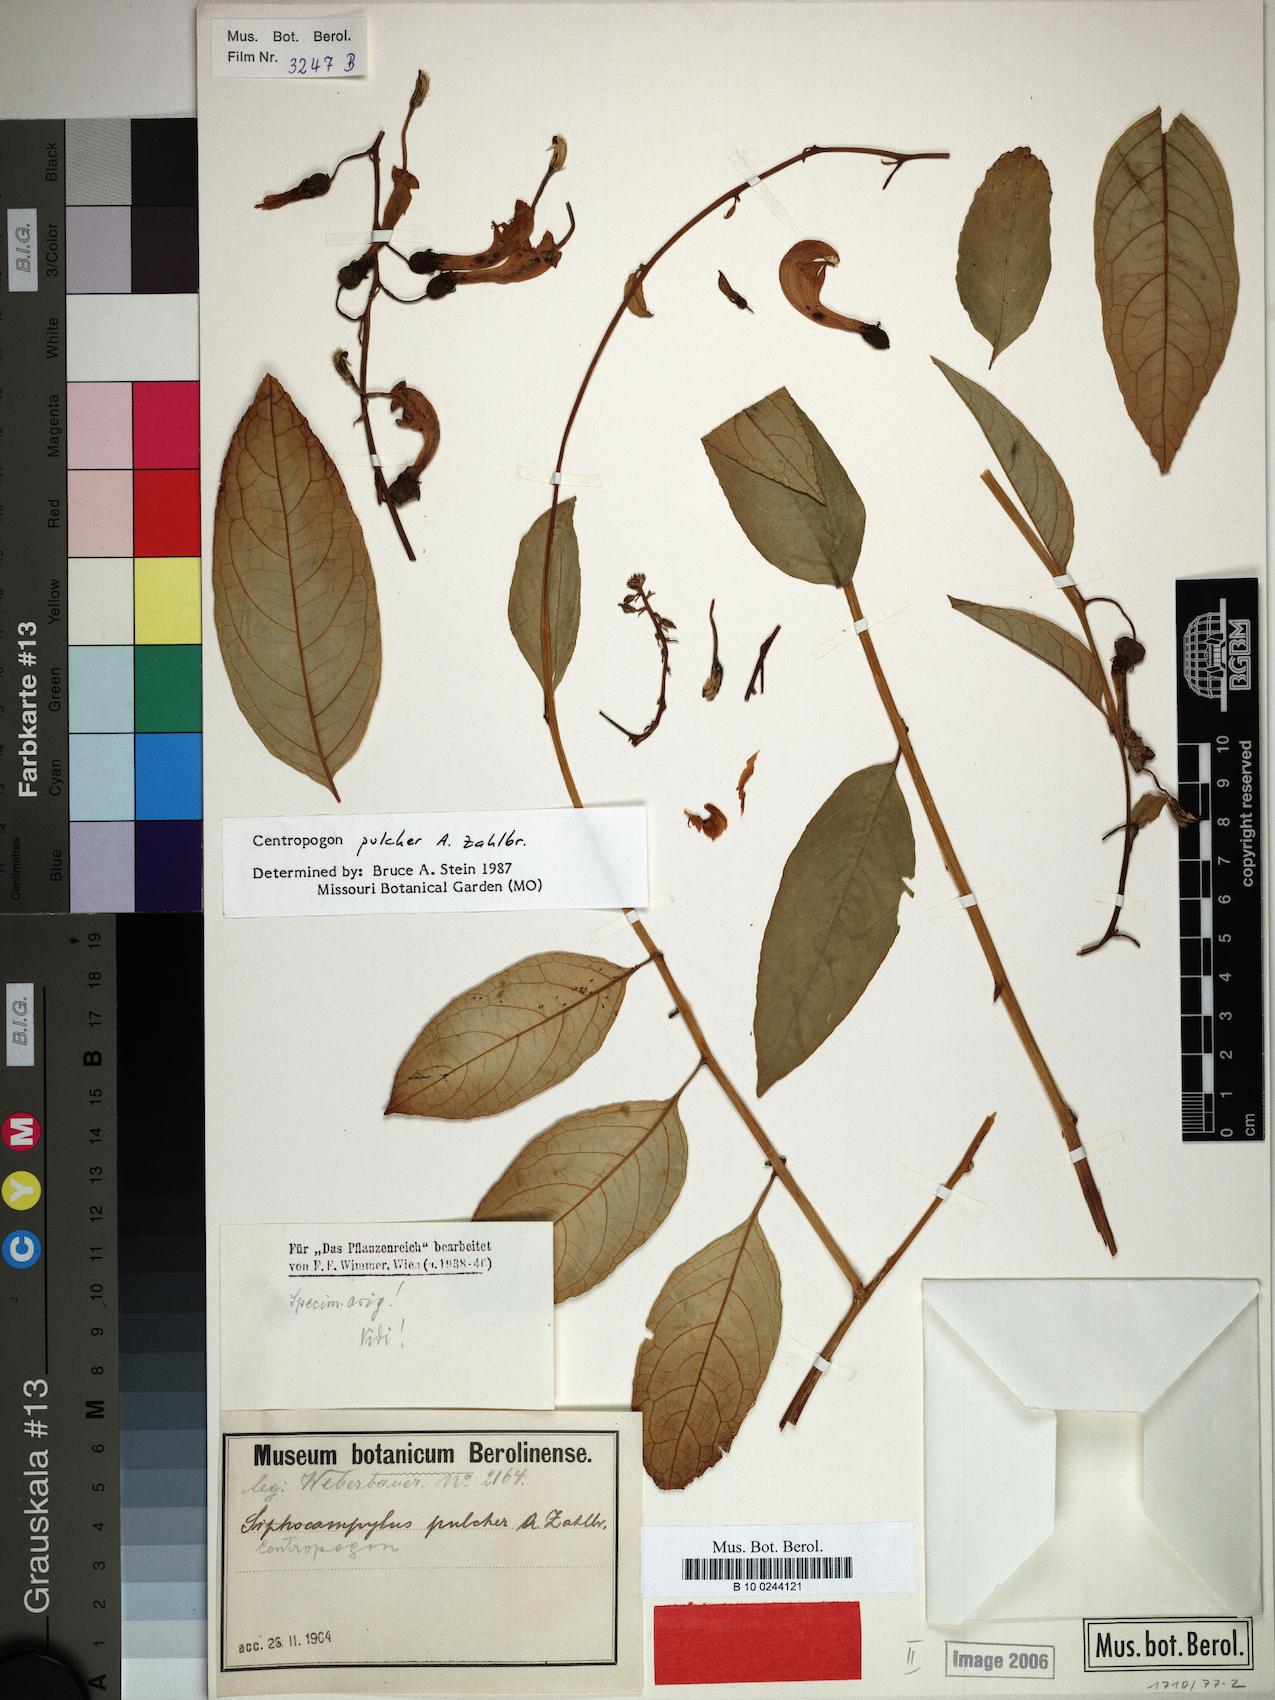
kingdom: Plantae
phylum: Tracheophyta
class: Magnoliopsida
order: Asterales
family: Campanulaceae
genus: Centropogon
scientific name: Centropogon pulcher
